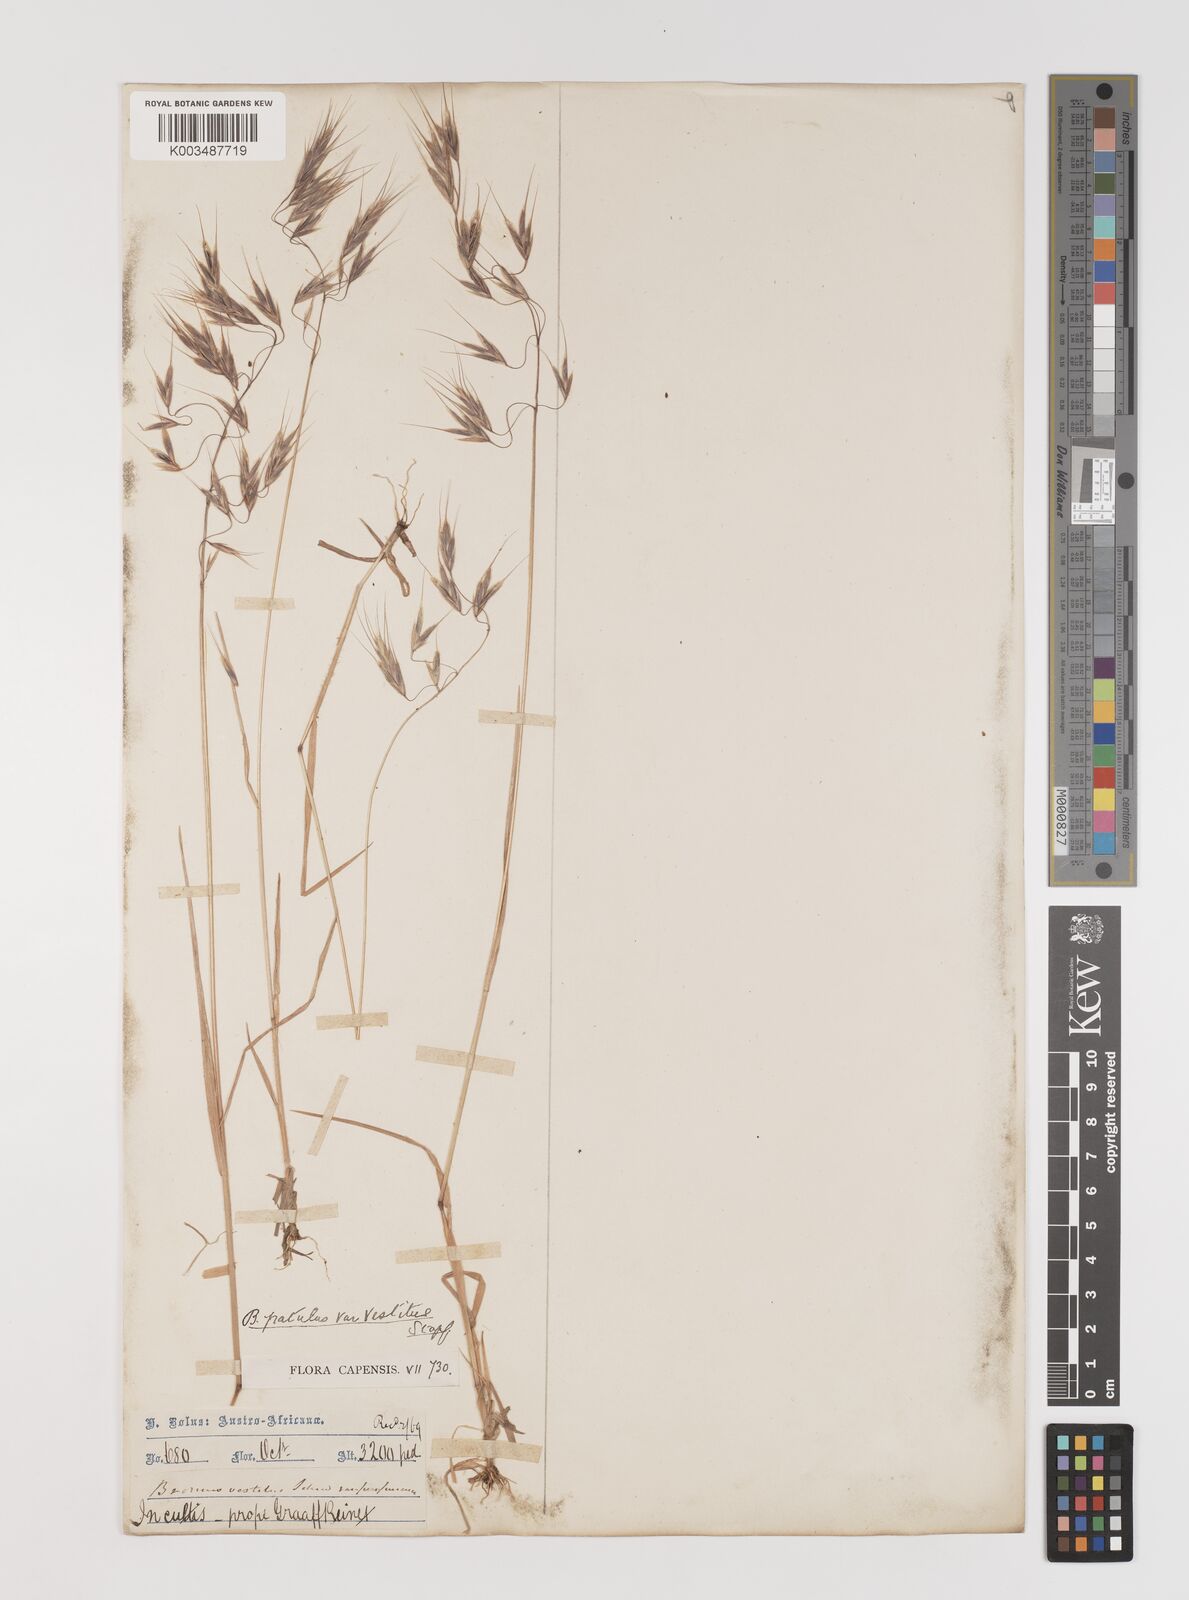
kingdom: Plantae
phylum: Tracheophyta
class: Liliopsida
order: Poales
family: Poaceae
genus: Bromus
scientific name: Bromus pectinatus
